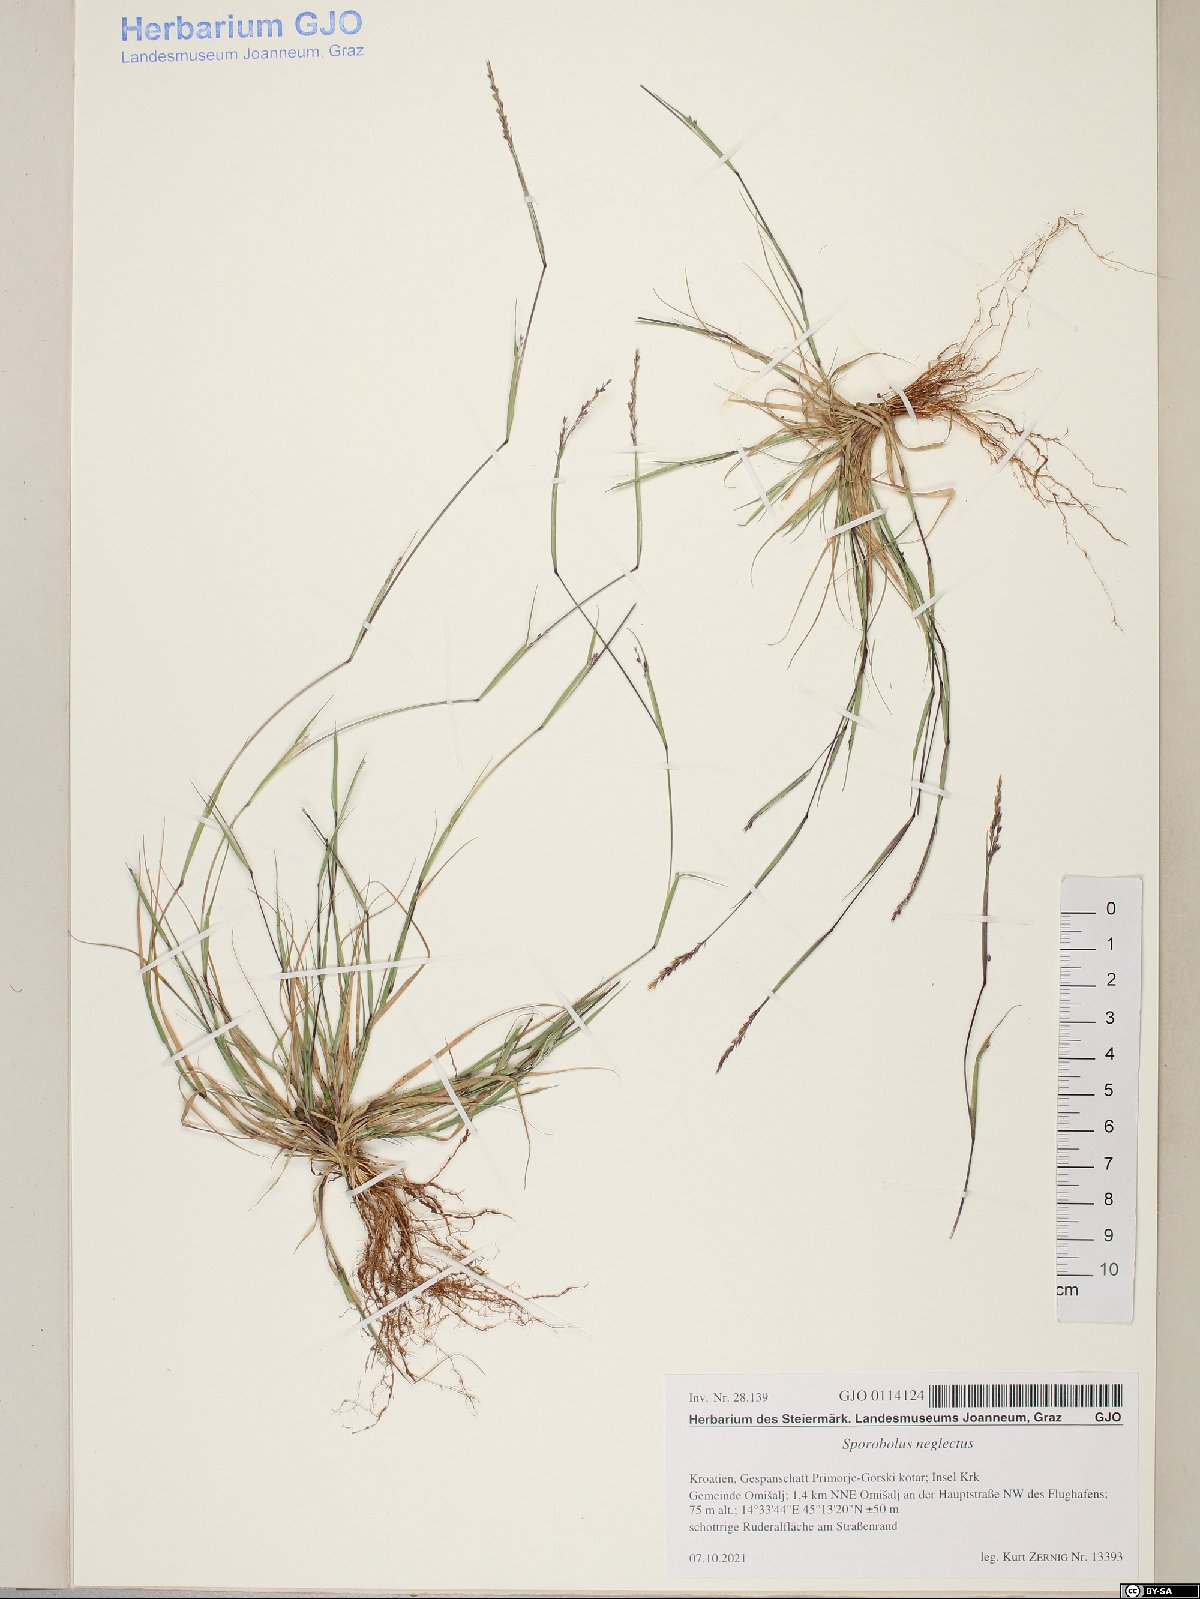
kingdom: Plantae
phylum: Tracheophyta
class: Liliopsida
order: Poales
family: Poaceae
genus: Sporobolus
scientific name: Sporobolus neglectus
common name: Annual dropseed
